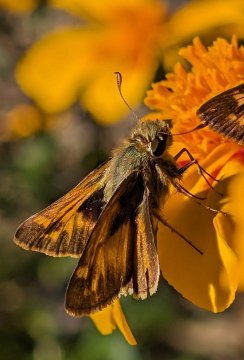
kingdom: Animalia
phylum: Arthropoda
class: Insecta
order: Lepidoptera
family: Hesperiidae
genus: Atalopedes
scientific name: Atalopedes campestris
